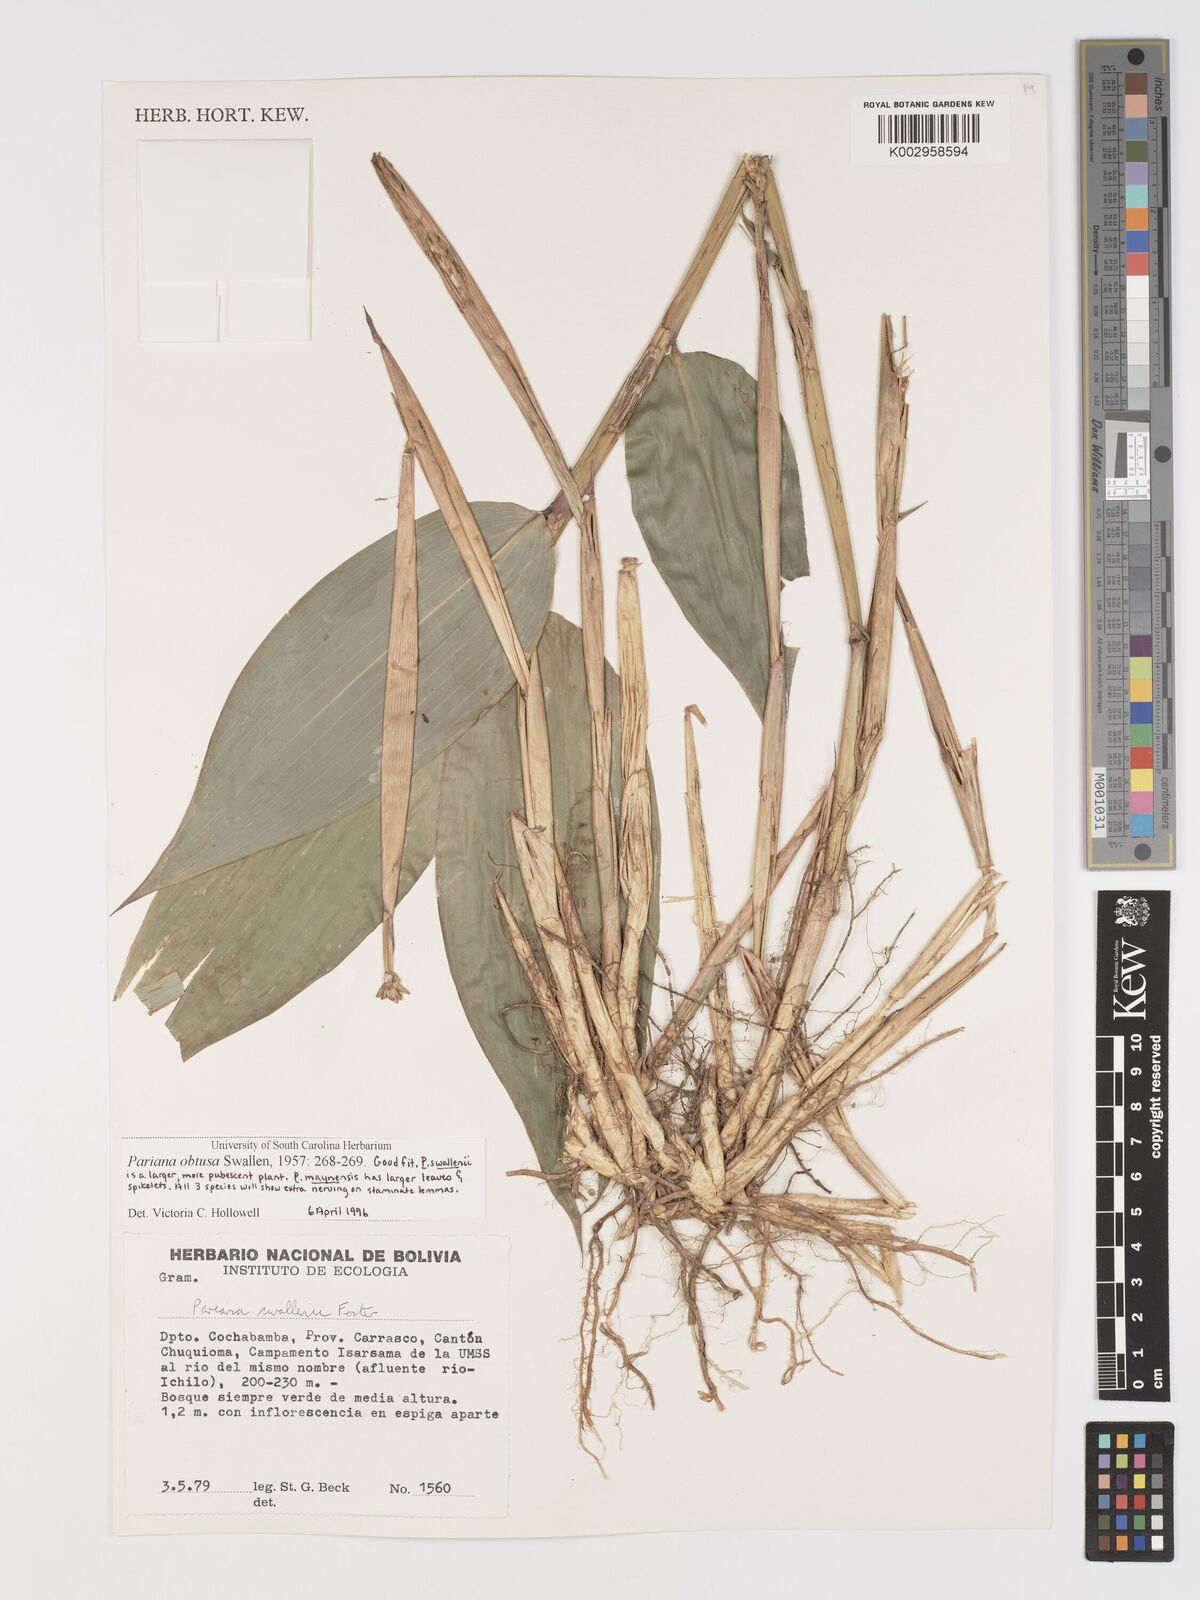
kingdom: Plantae
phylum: Tracheophyta
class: Liliopsida
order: Poales
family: Poaceae
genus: Pariana
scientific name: Pariana obtusa
